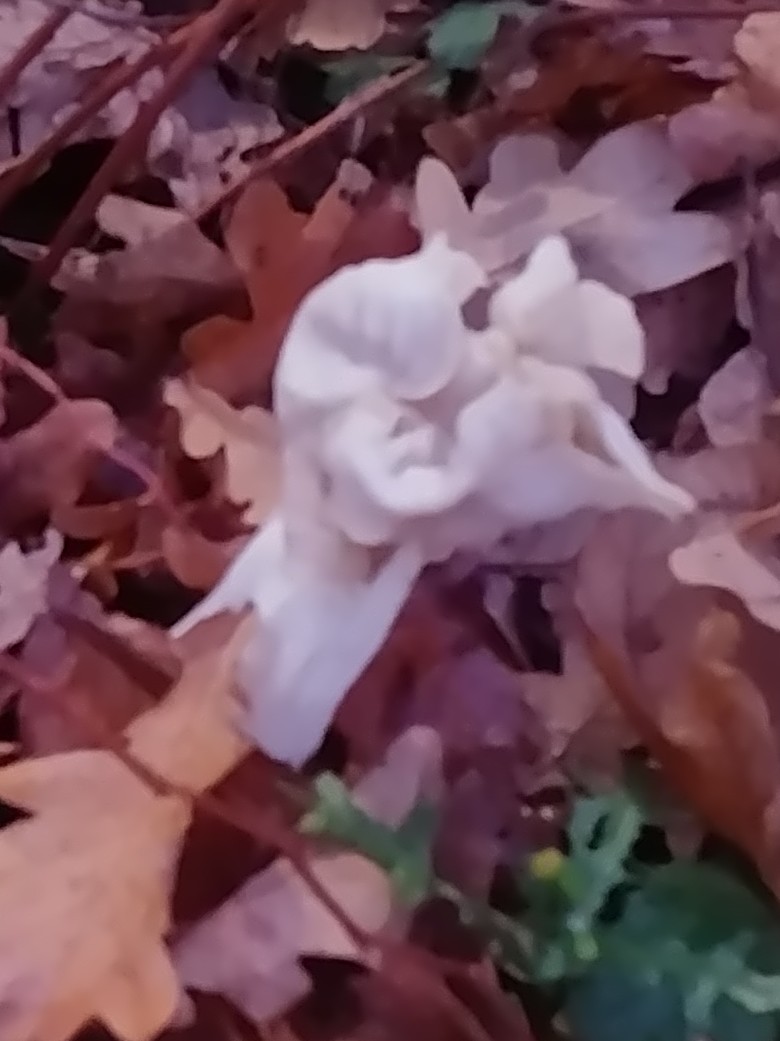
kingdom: Fungi
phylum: Ascomycota
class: Pezizomycetes
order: Pezizales
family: Helvellaceae
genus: Helvella
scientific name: Helvella crispa
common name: kruset foldhat
